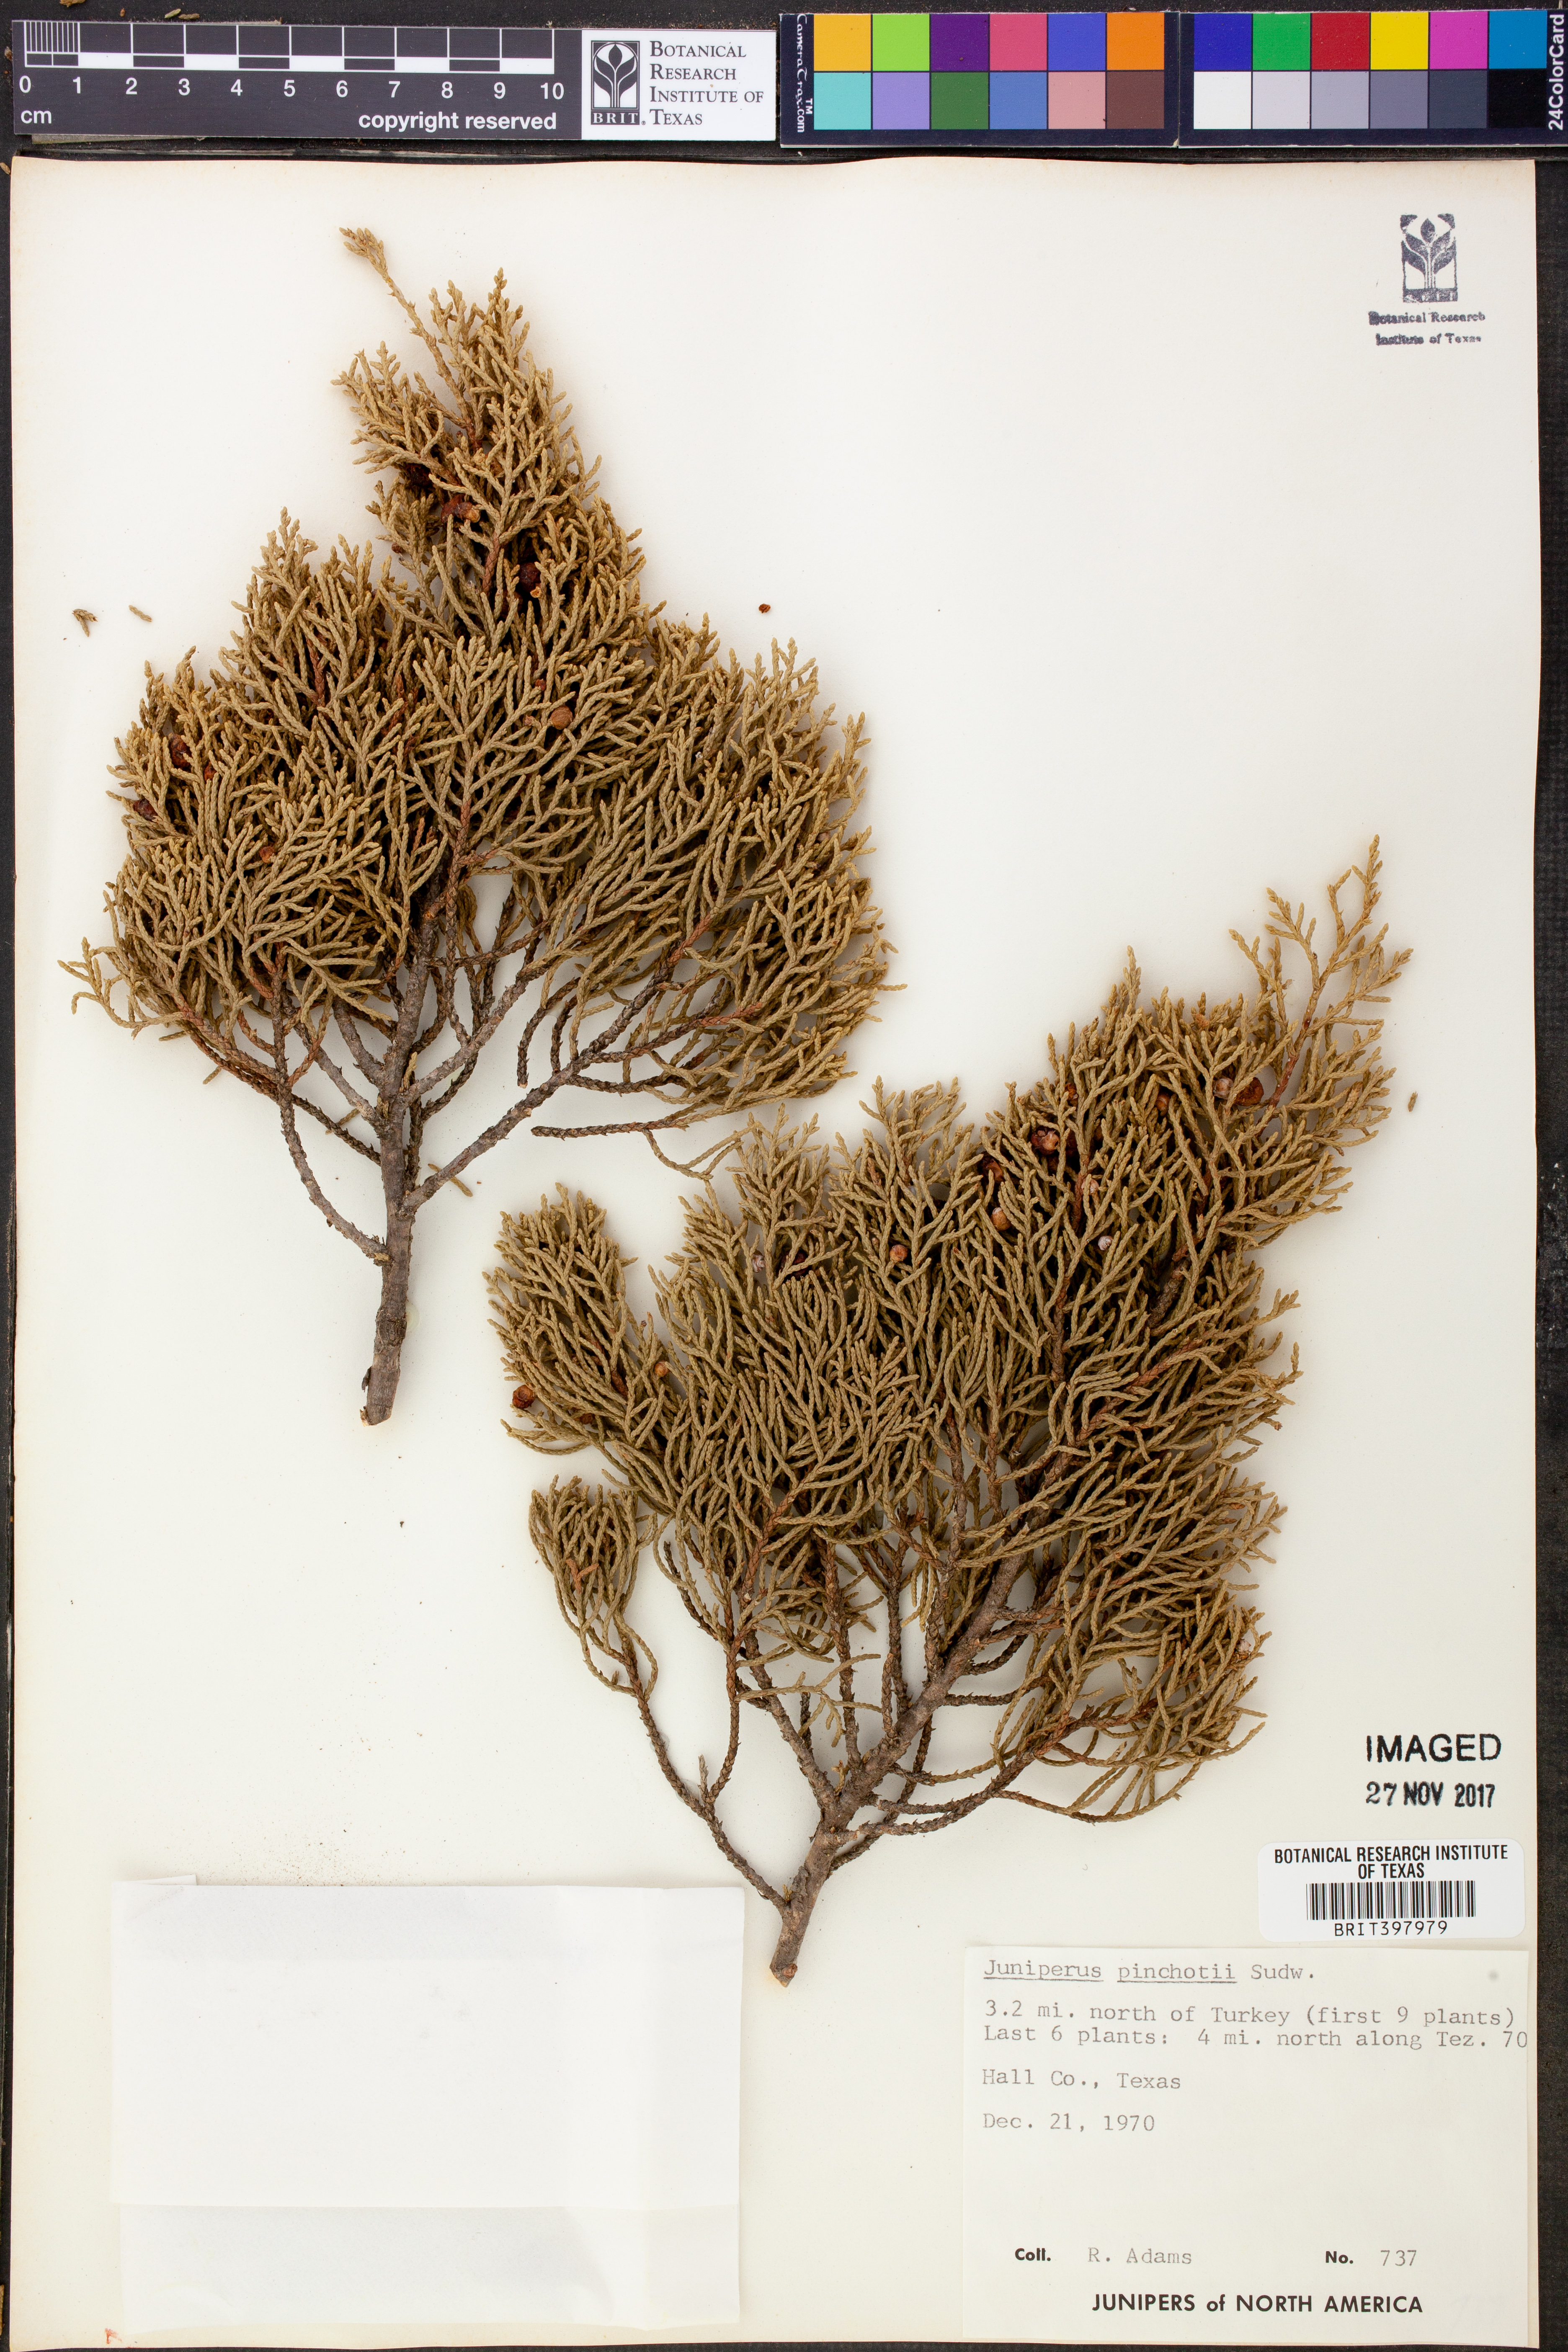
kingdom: Plantae
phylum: Tracheophyta
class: Pinopsida
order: Pinales
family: Cupressaceae
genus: Juniperus
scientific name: Juniperus pinchotii
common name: Pinchot juniper
